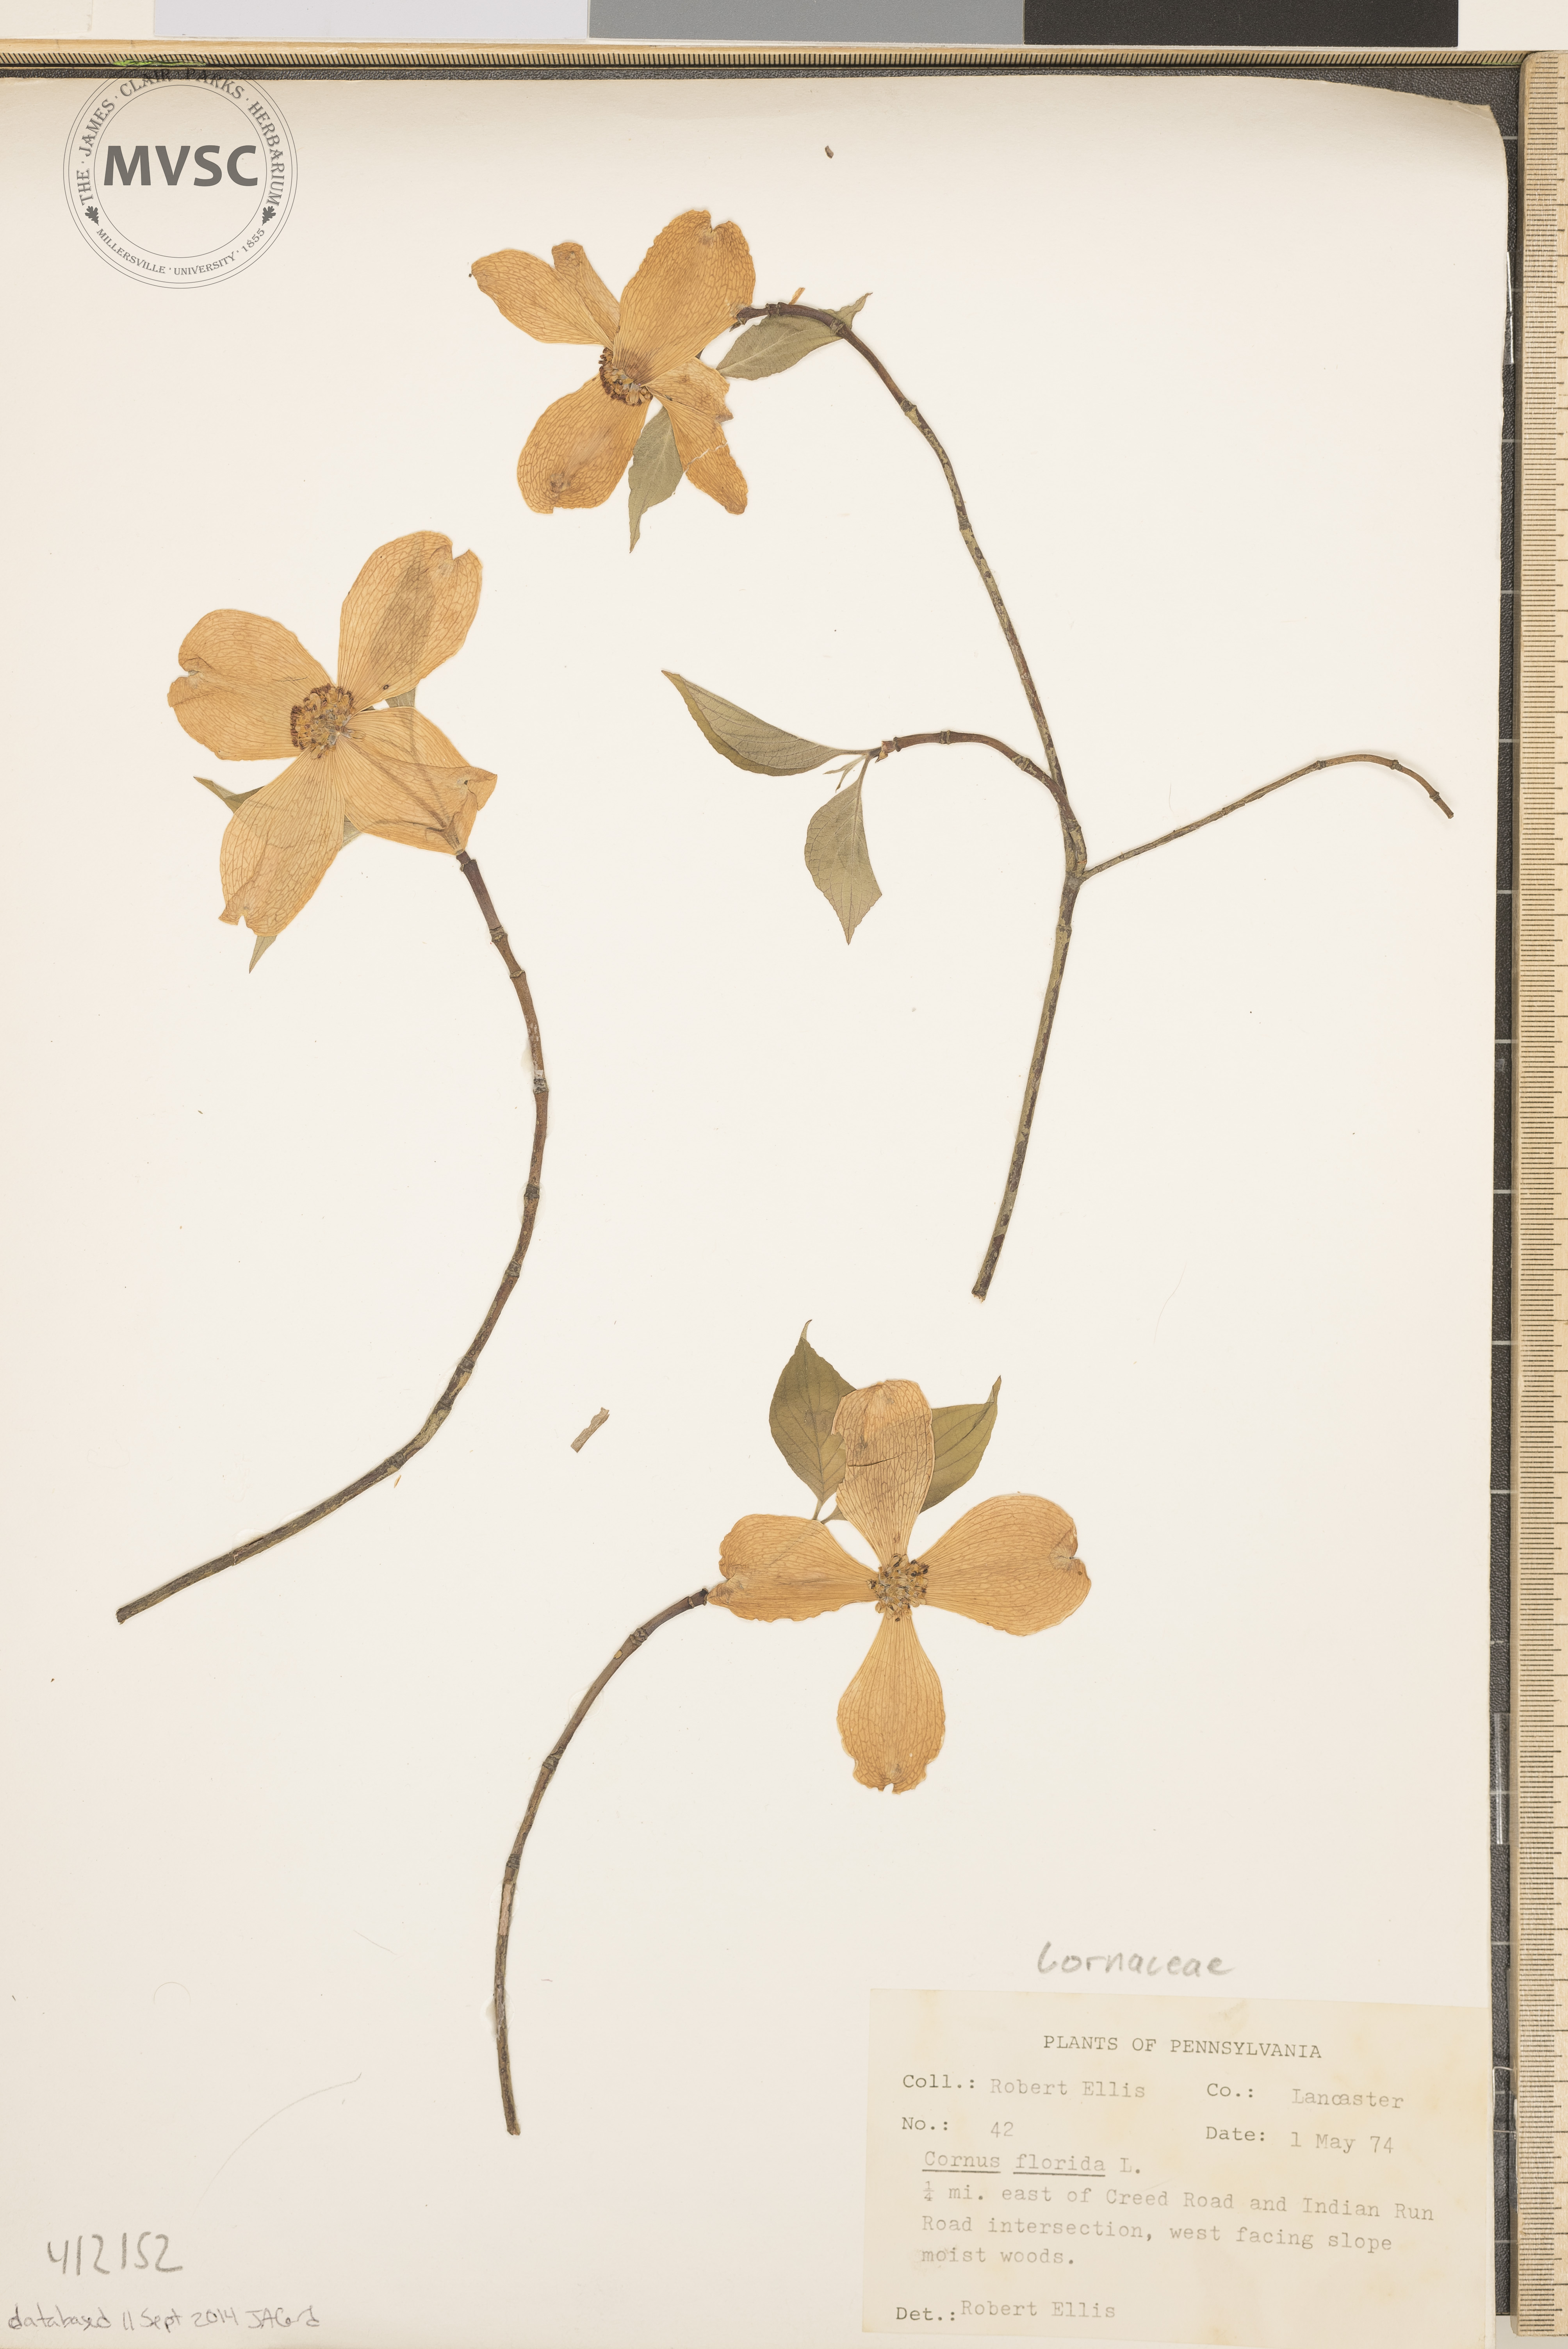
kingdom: Plantae
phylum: Tracheophyta
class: Magnoliopsida
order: Cornales
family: Cornaceae
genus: Cornus
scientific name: Cornus florida
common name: Flowering dogwood
